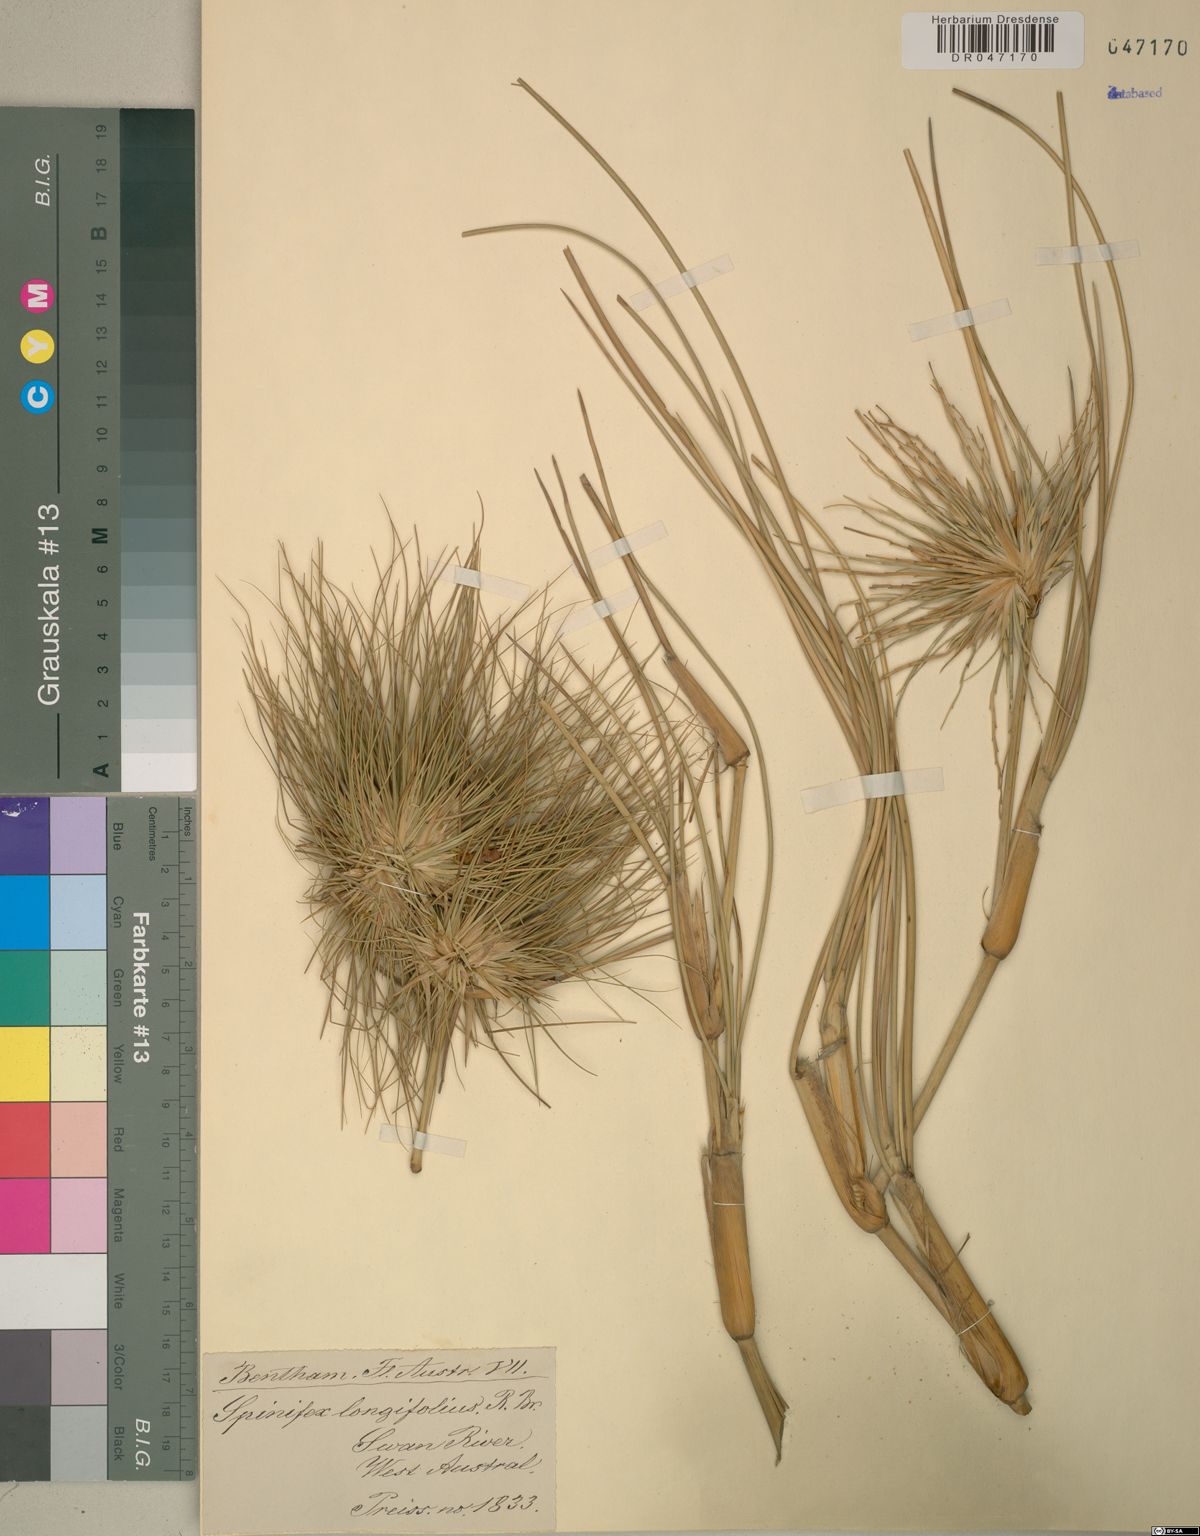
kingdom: Plantae
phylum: Tracheophyta
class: Liliopsida
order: Poales
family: Poaceae
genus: Spinifex
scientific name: Spinifex longifolius
